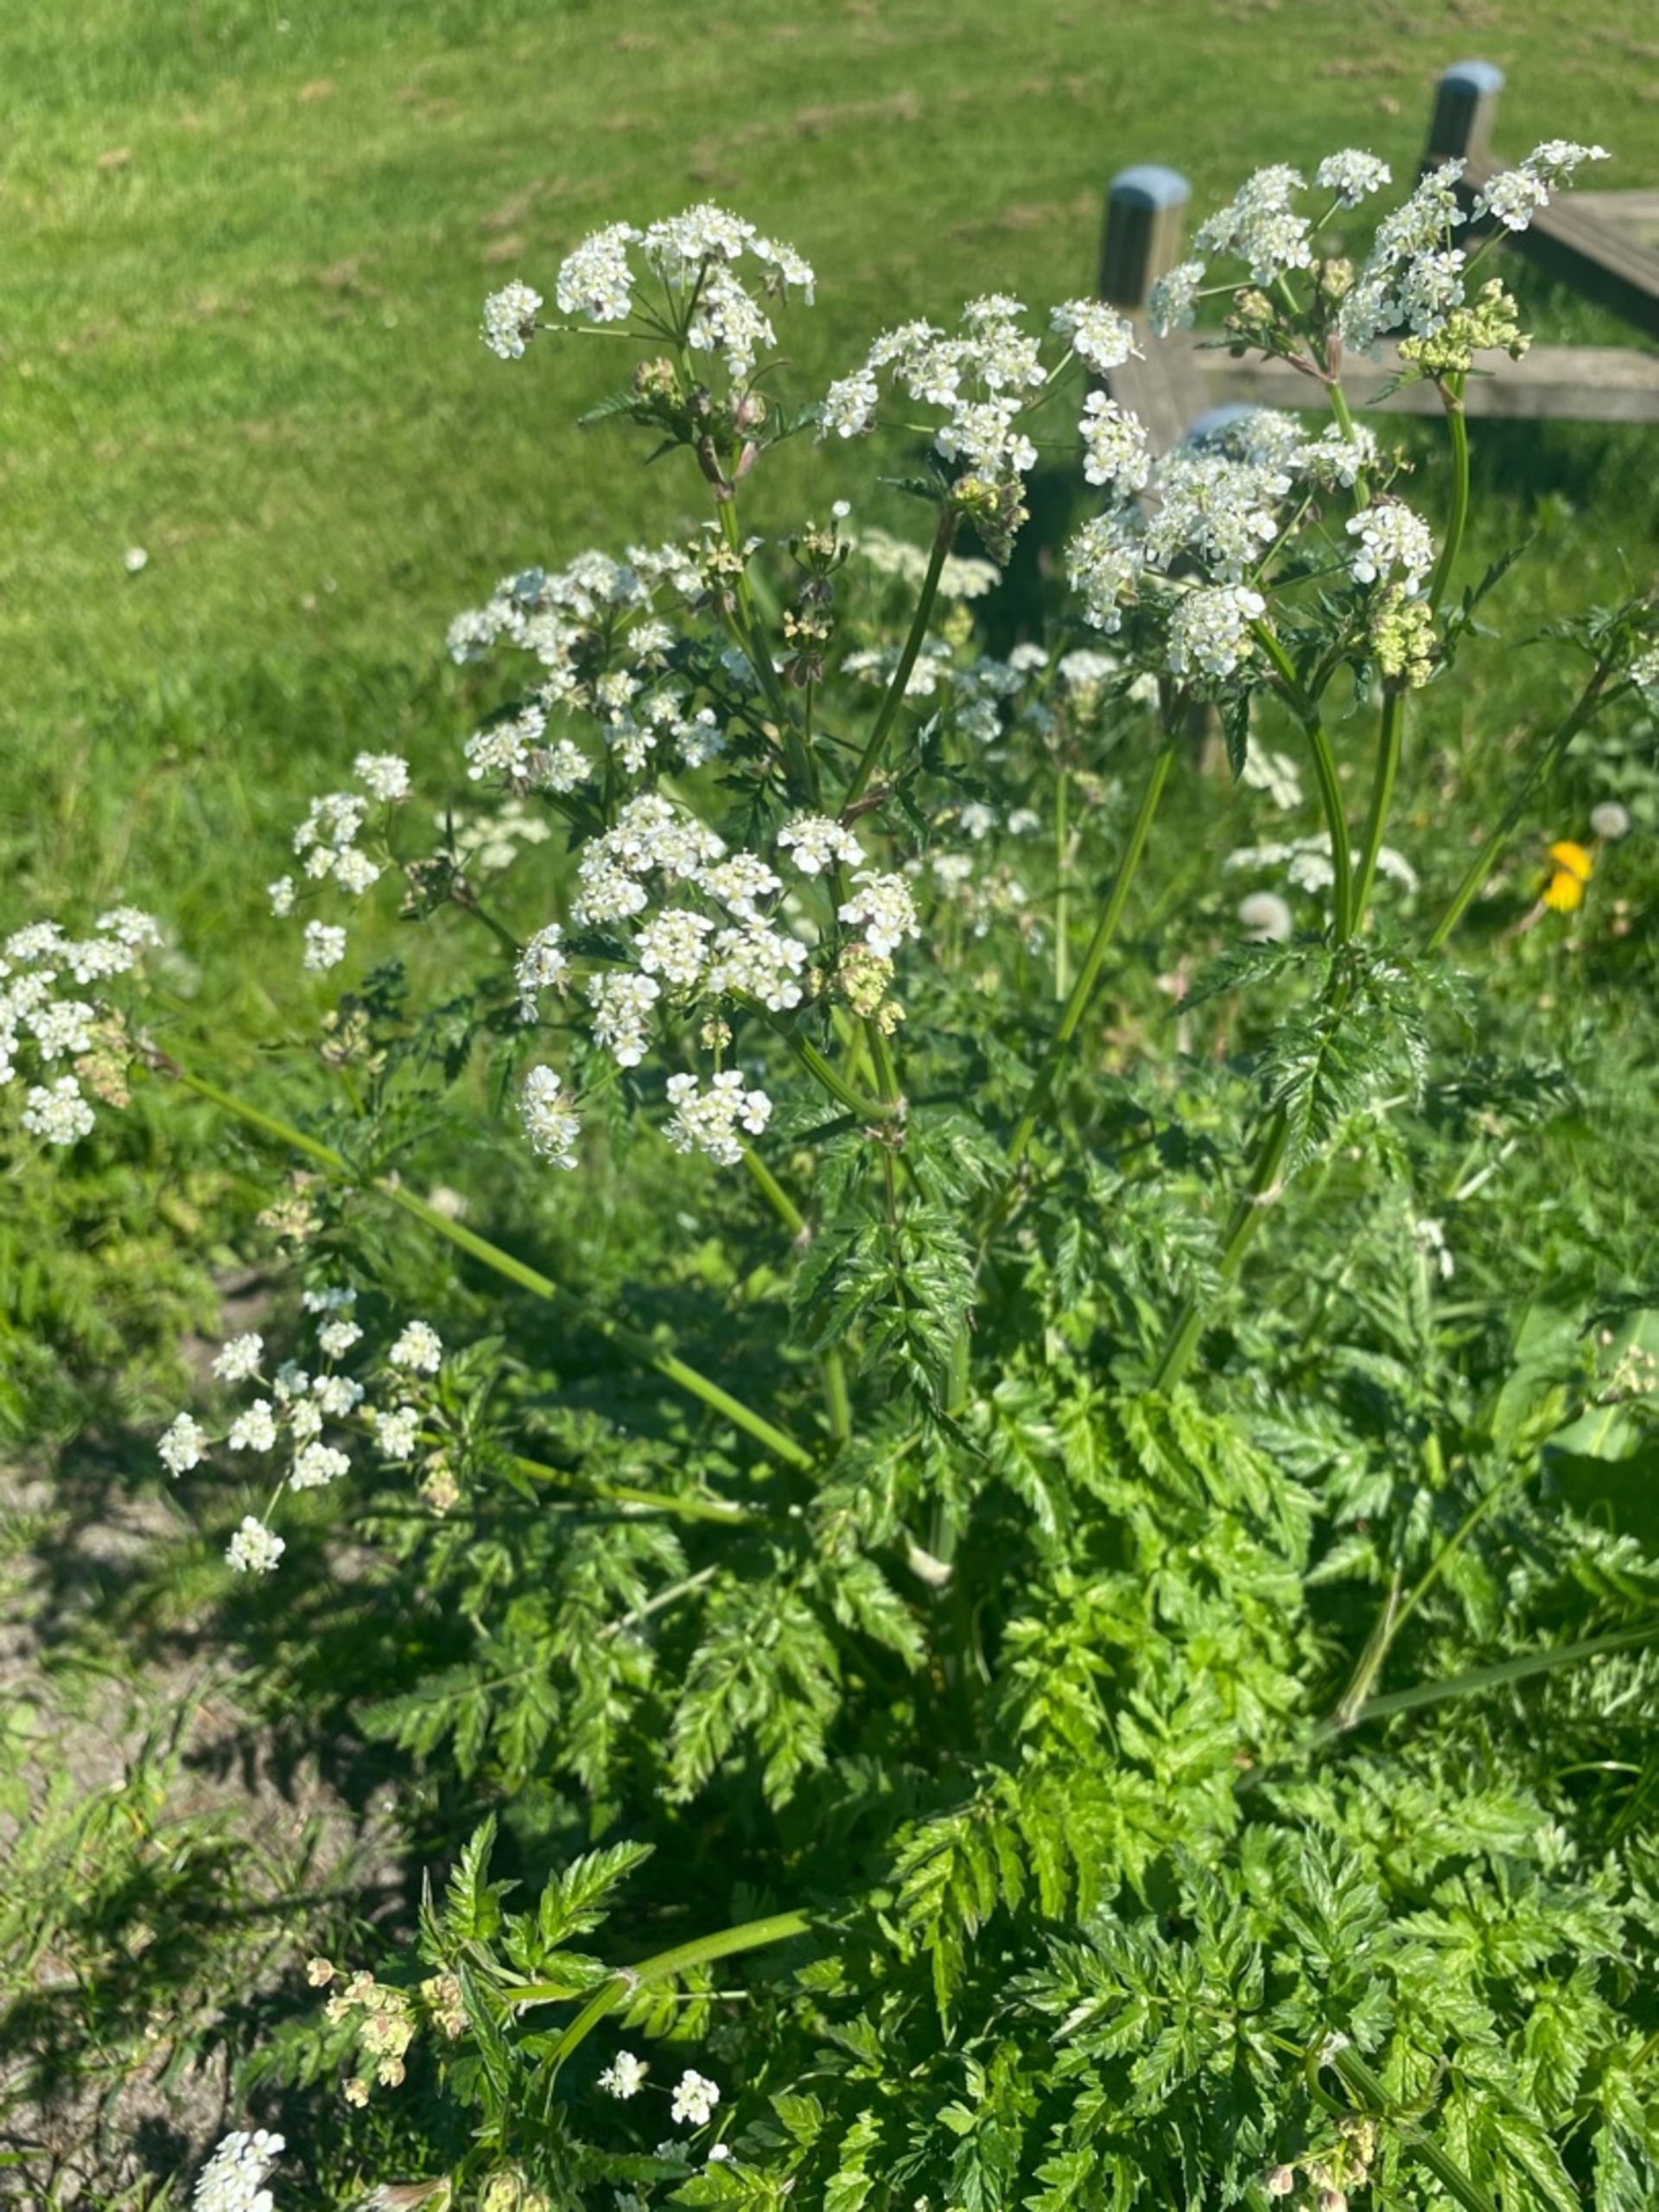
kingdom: Plantae
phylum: Tracheophyta
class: Magnoliopsida
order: Apiales
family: Apiaceae
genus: Anthriscus
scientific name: Anthriscus sylvestris
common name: Vild kørvel
